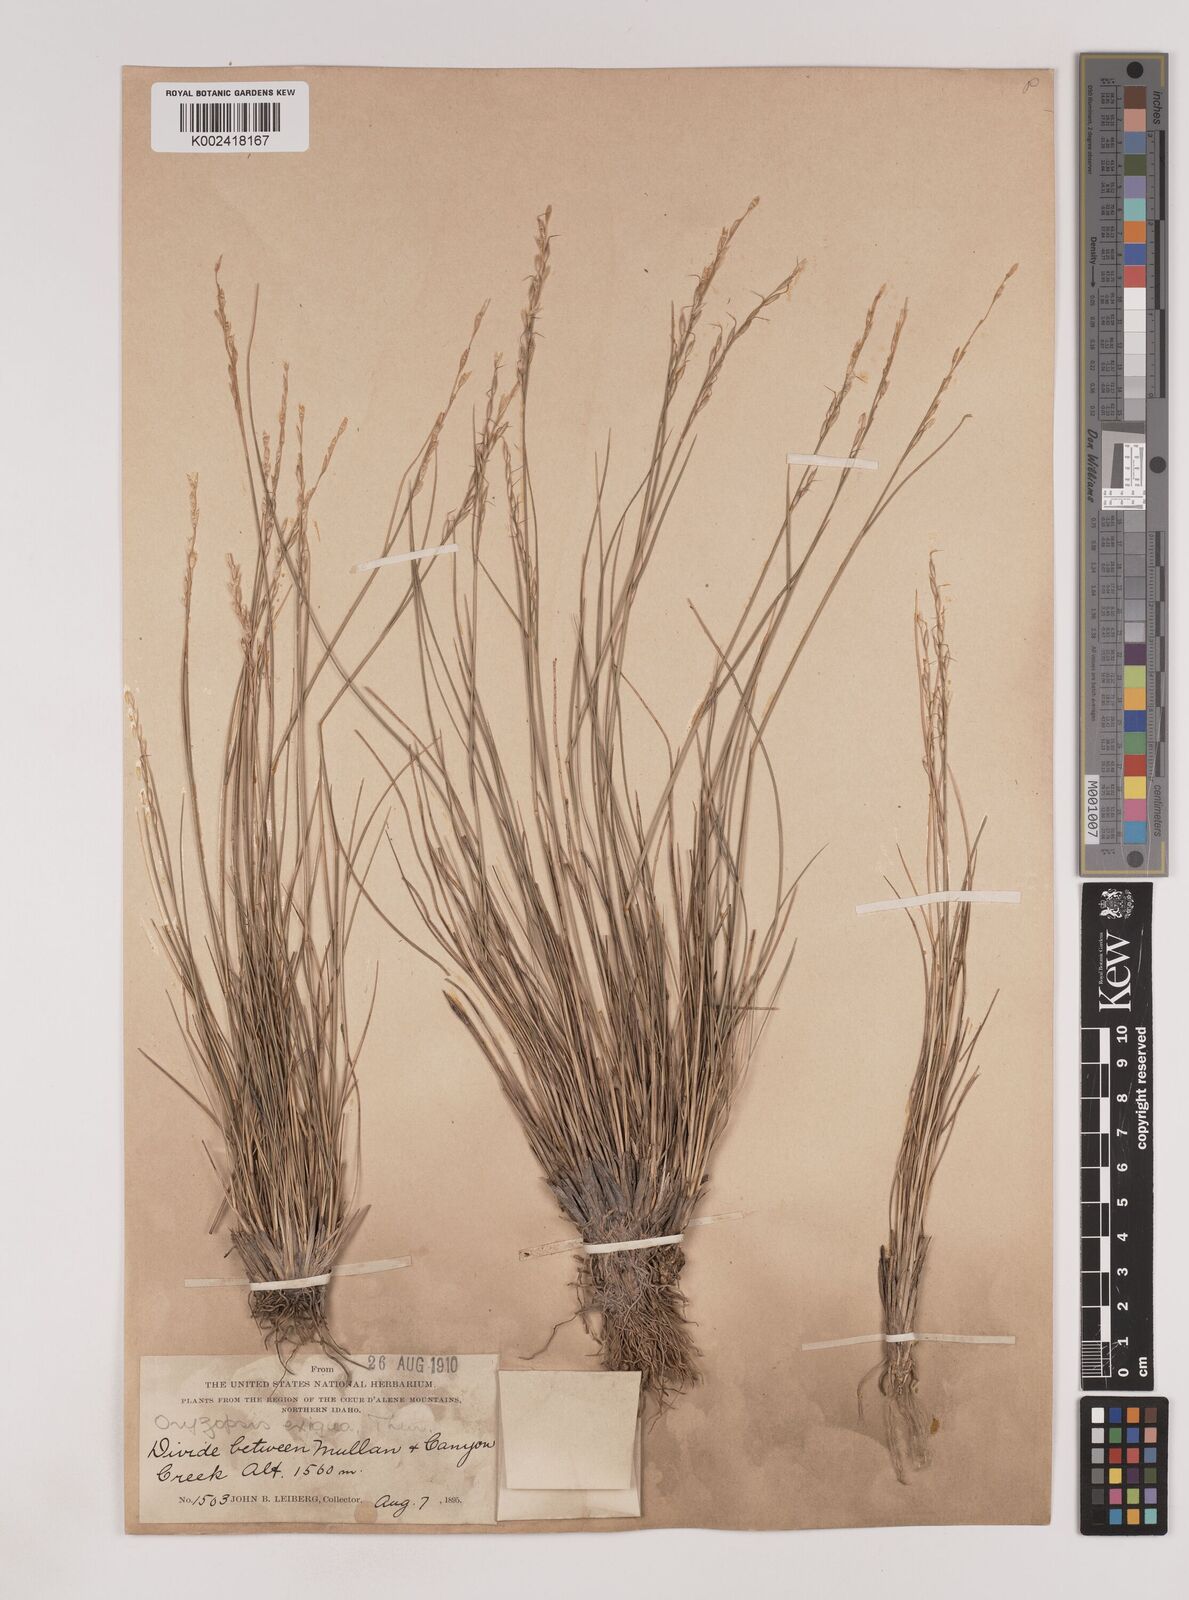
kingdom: Plantae
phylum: Tracheophyta
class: Liliopsida
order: Poales
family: Poaceae
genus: Piptatheropsis
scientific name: Piptatheropsis exigua
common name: Little mountain ricegrass
